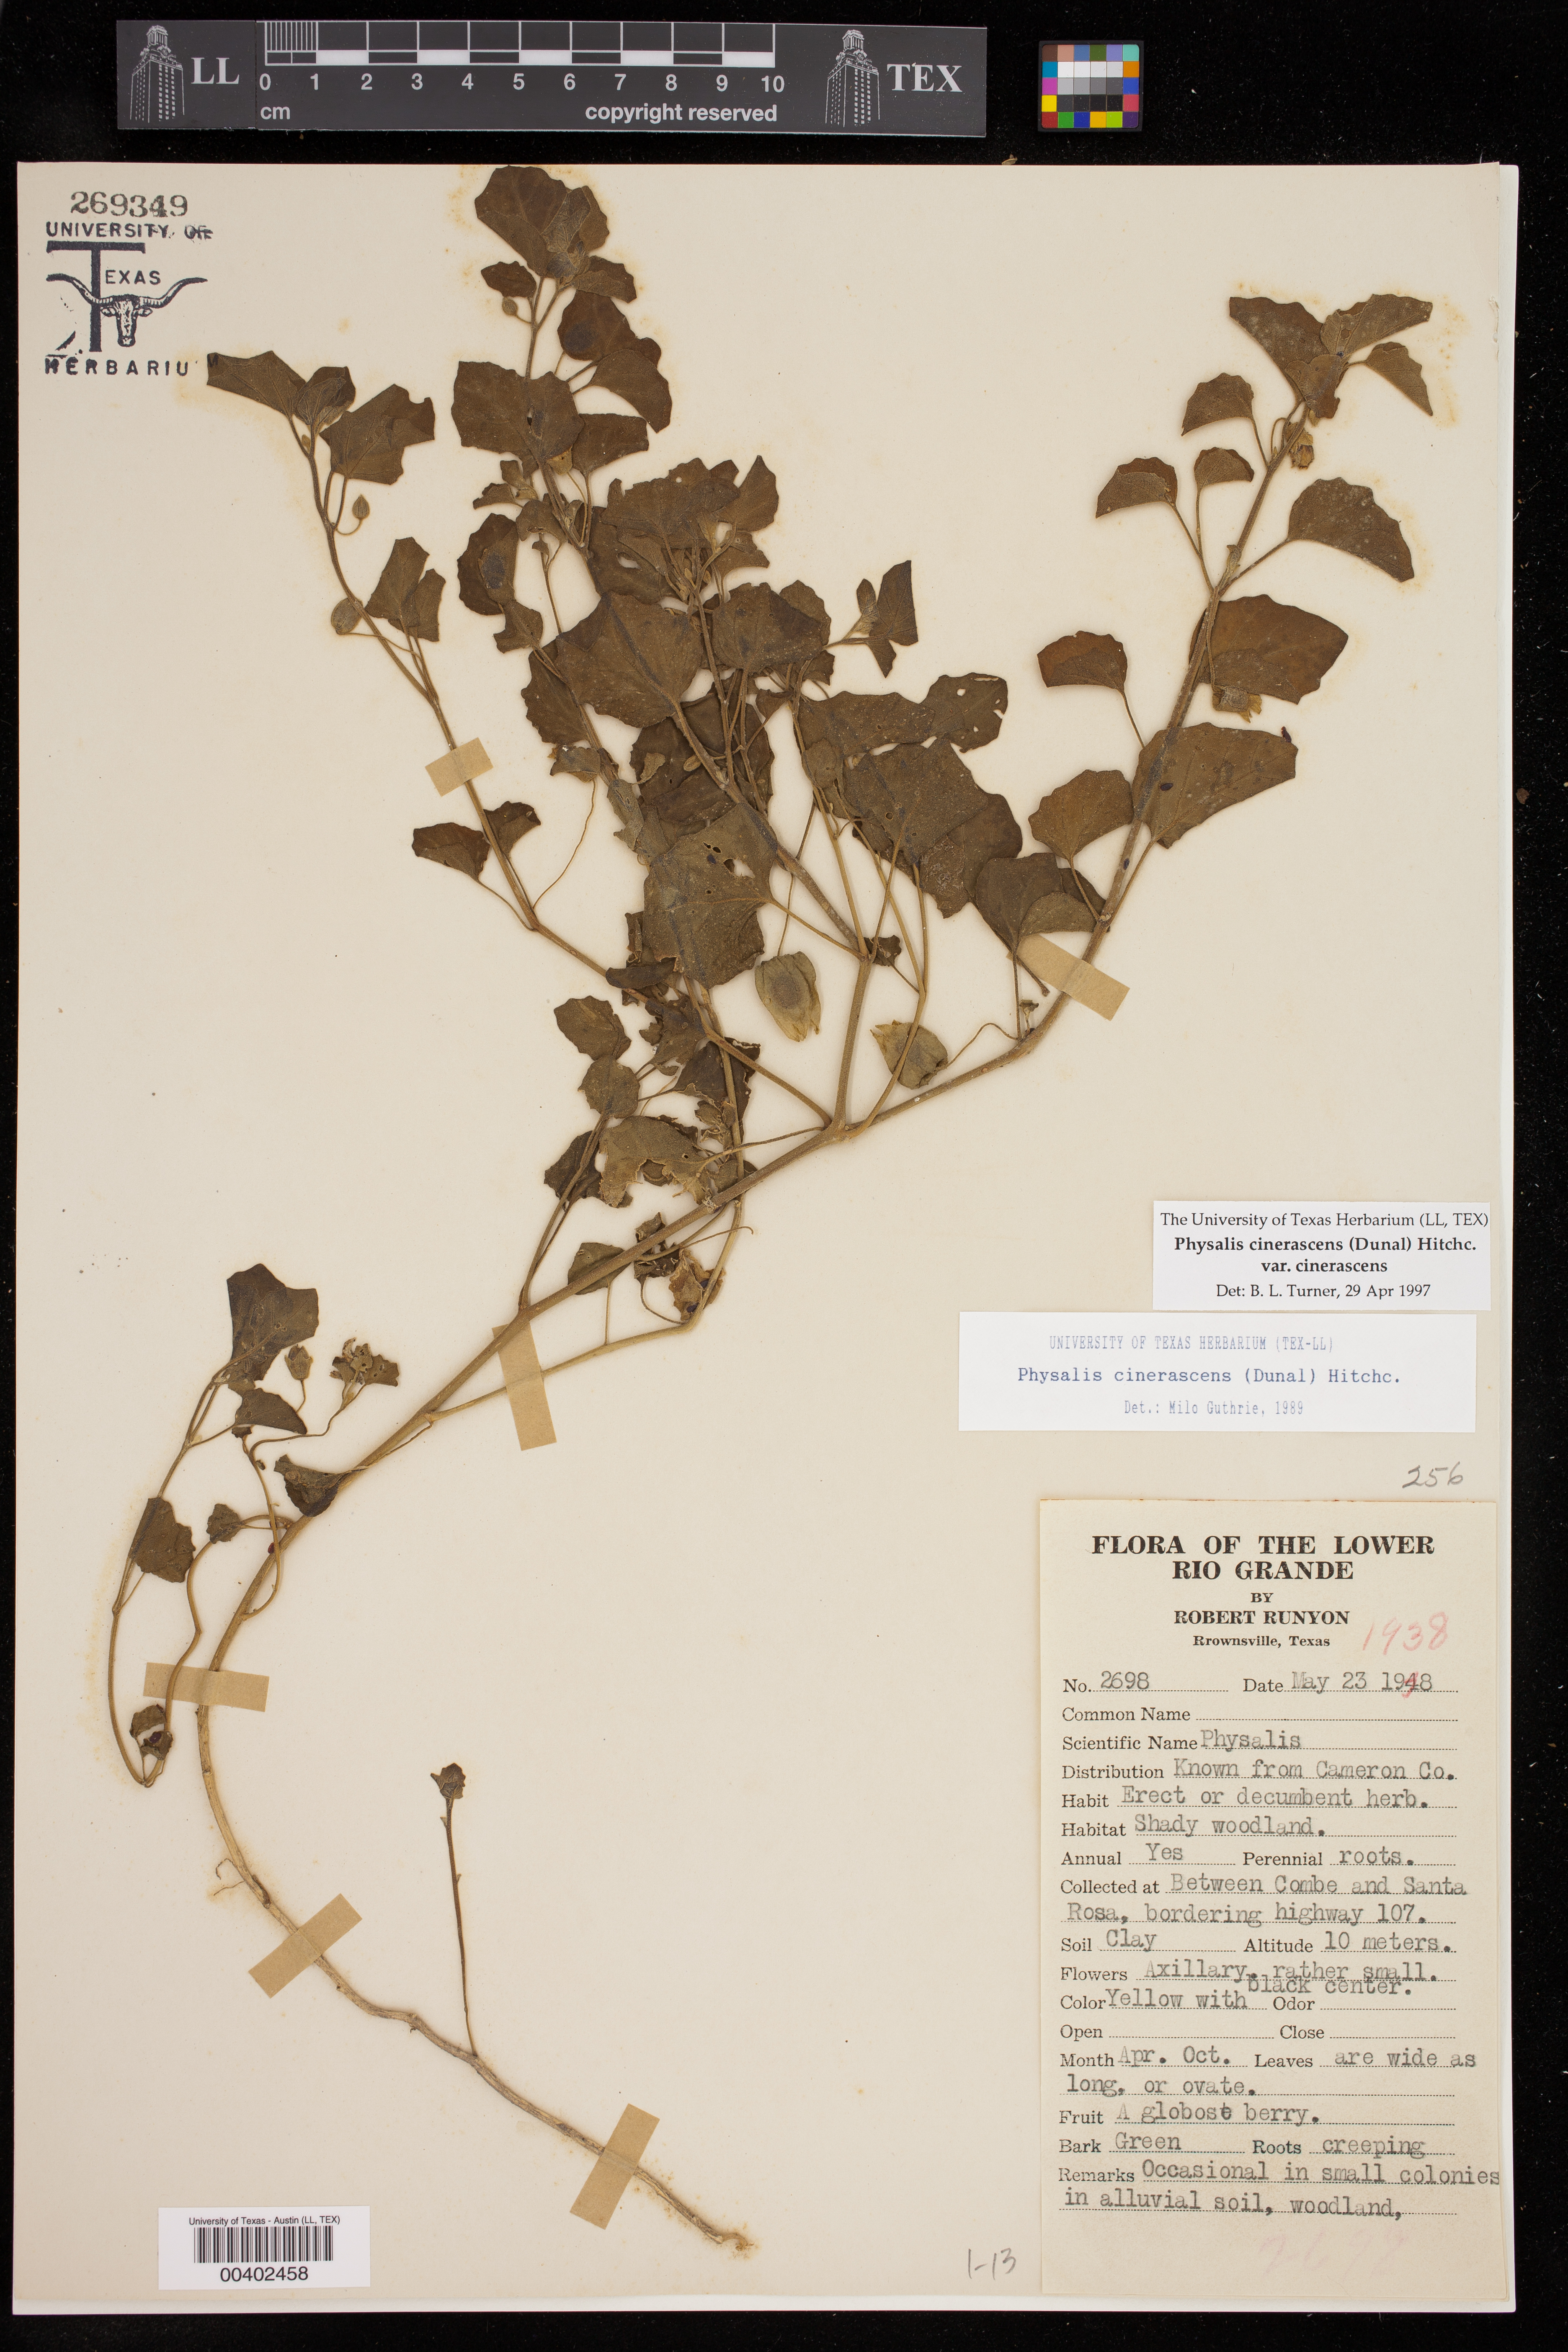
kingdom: Plantae
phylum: Tracheophyta
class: Magnoliopsida
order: Solanales
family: Solanaceae
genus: Physalis
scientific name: Physalis cinerascens
